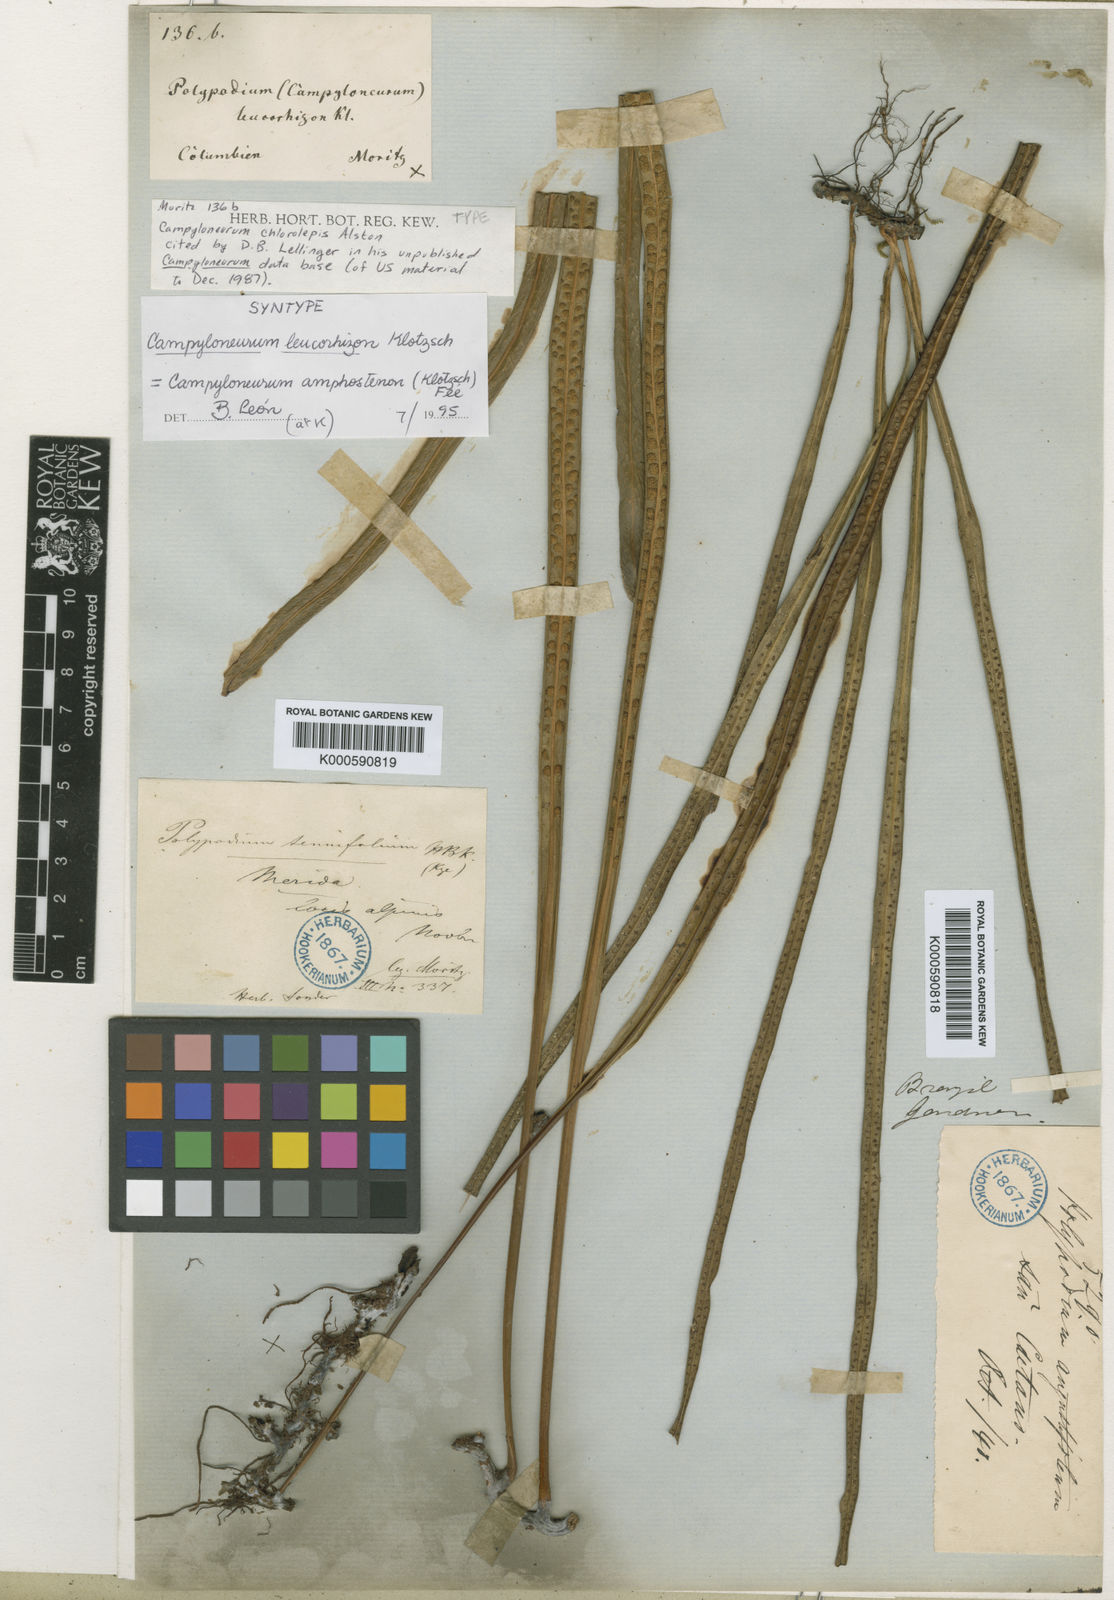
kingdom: Plantae
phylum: Tracheophyta
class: Polypodiopsida
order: Polypodiales
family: Polypodiaceae
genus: Campyloneurum
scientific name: Campyloneurum
